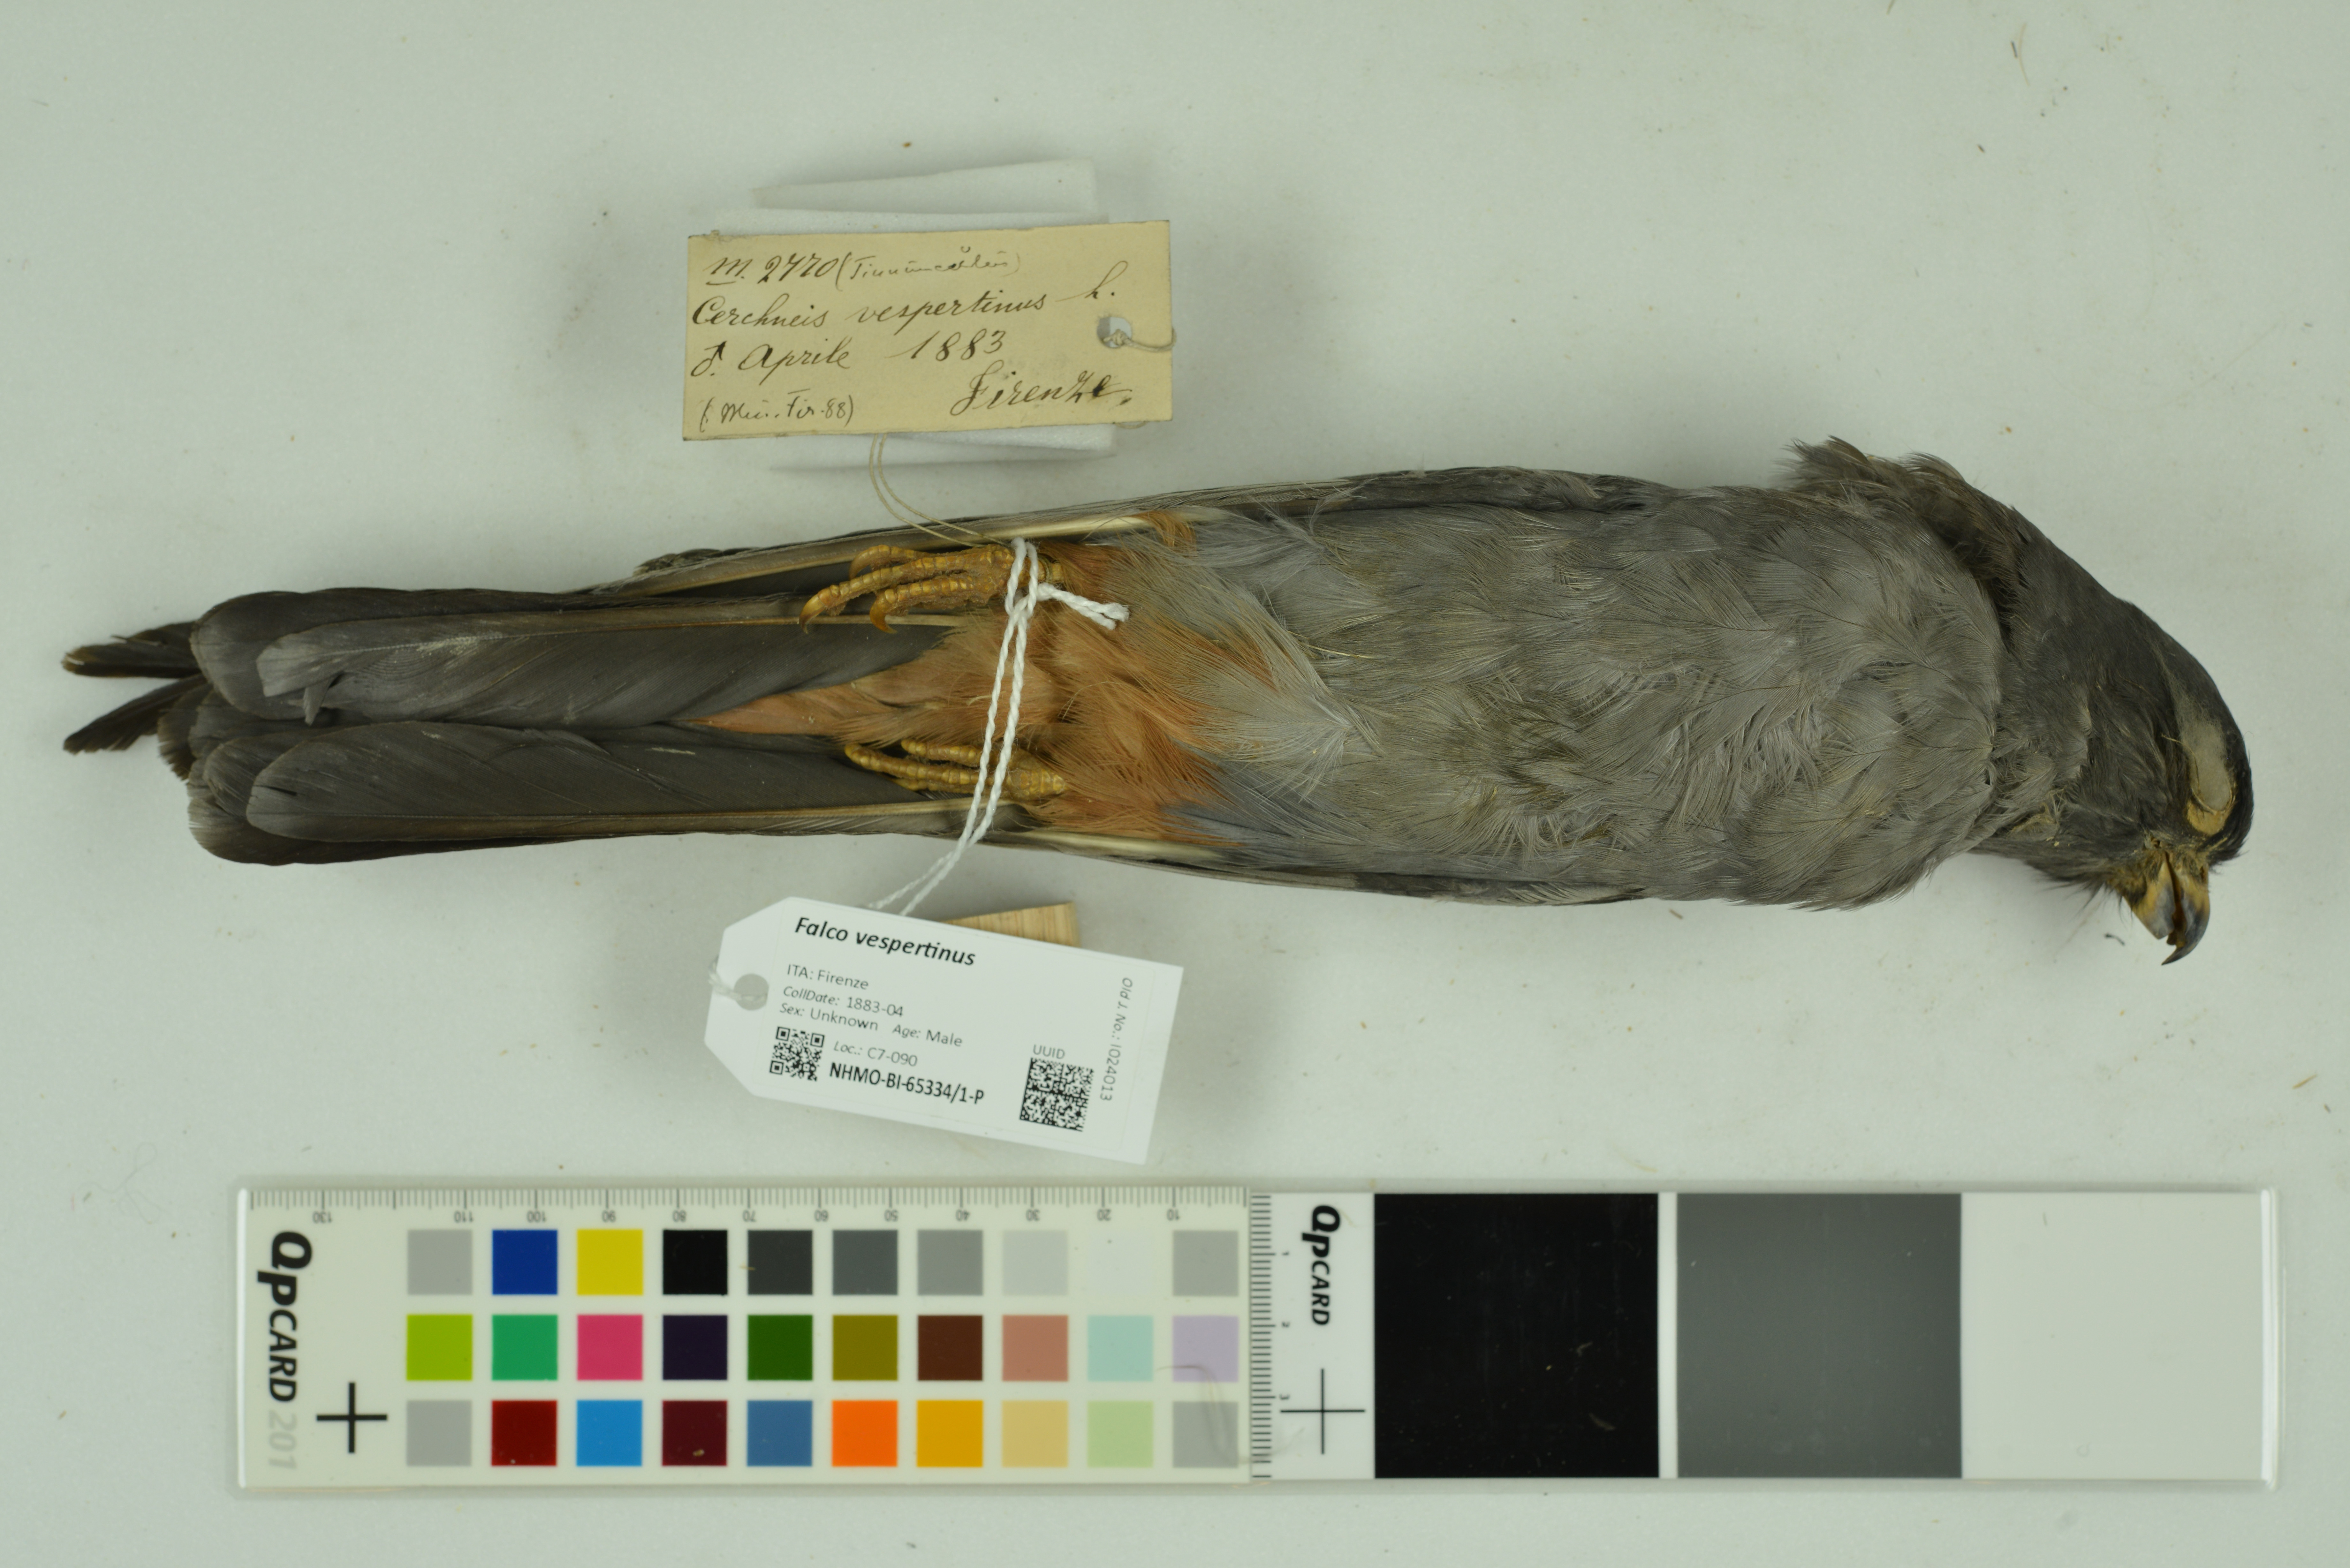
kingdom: Animalia
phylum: Chordata
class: Aves
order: Falconiformes
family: Falconidae
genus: Falco
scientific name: Falco vespertinus
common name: Red-footed falcon
